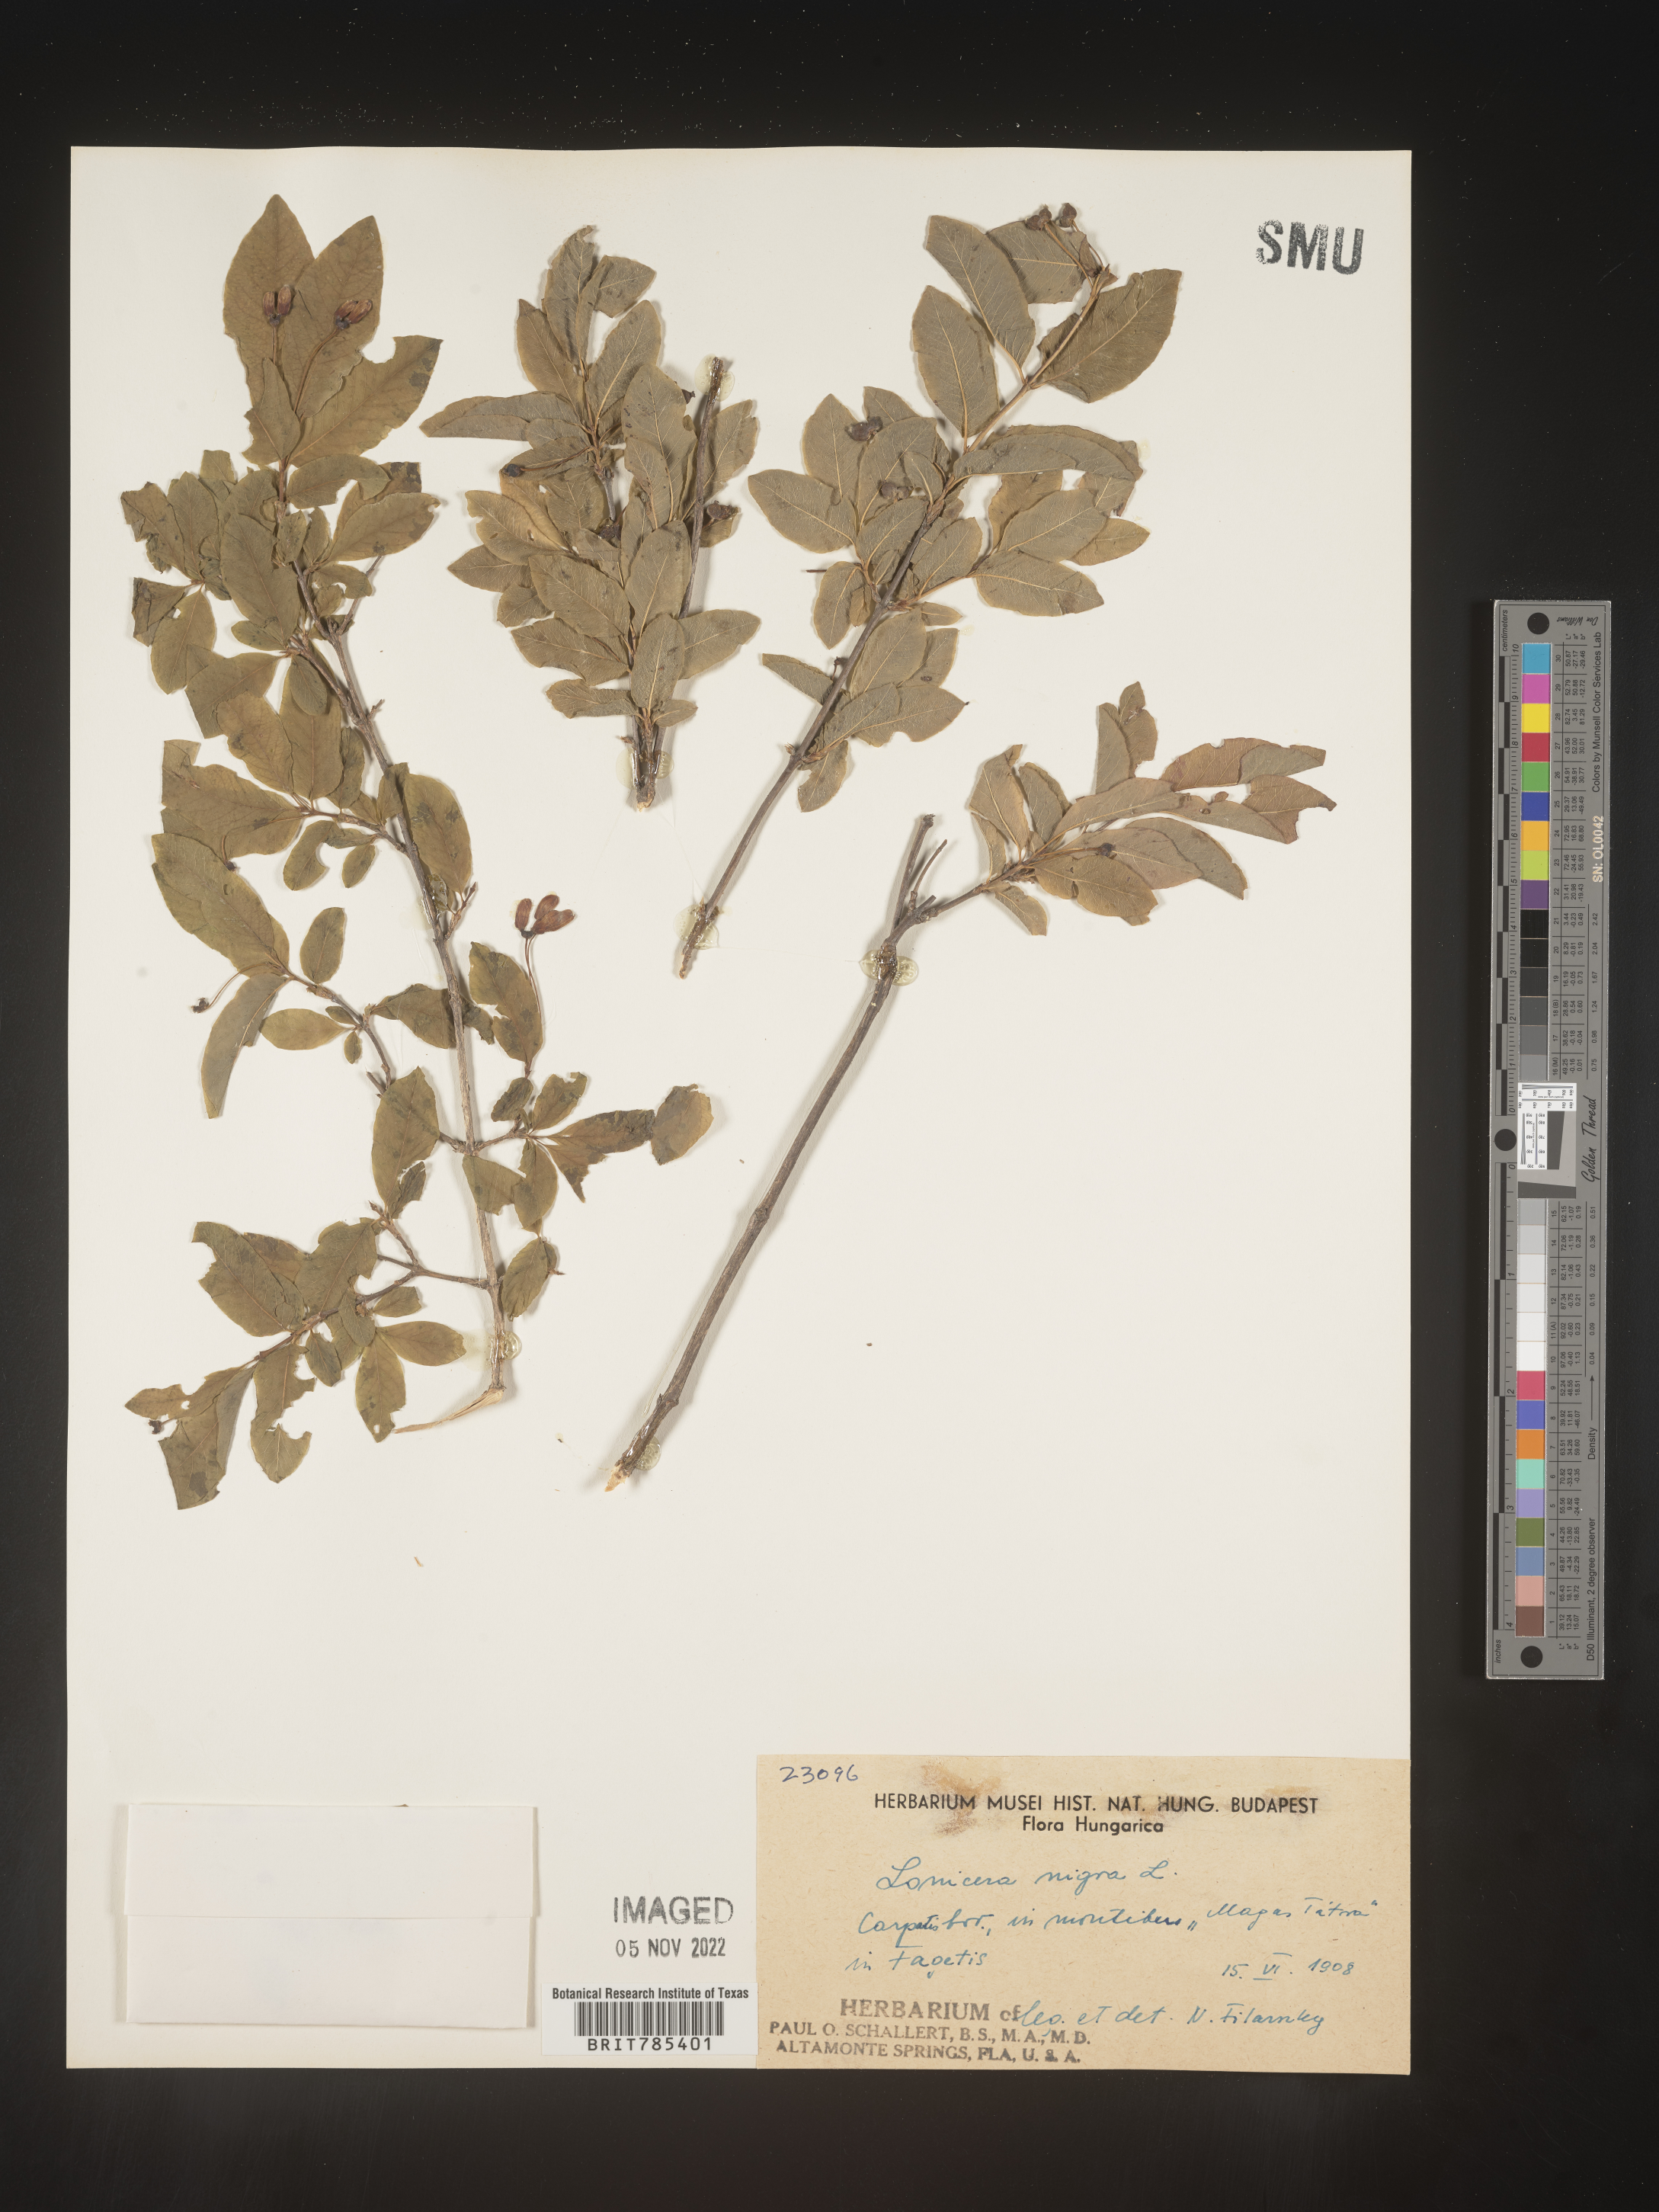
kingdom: Plantae
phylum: Tracheophyta
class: Magnoliopsida
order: Dipsacales
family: Caprifoliaceae
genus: Lonicera
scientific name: Lonicera
